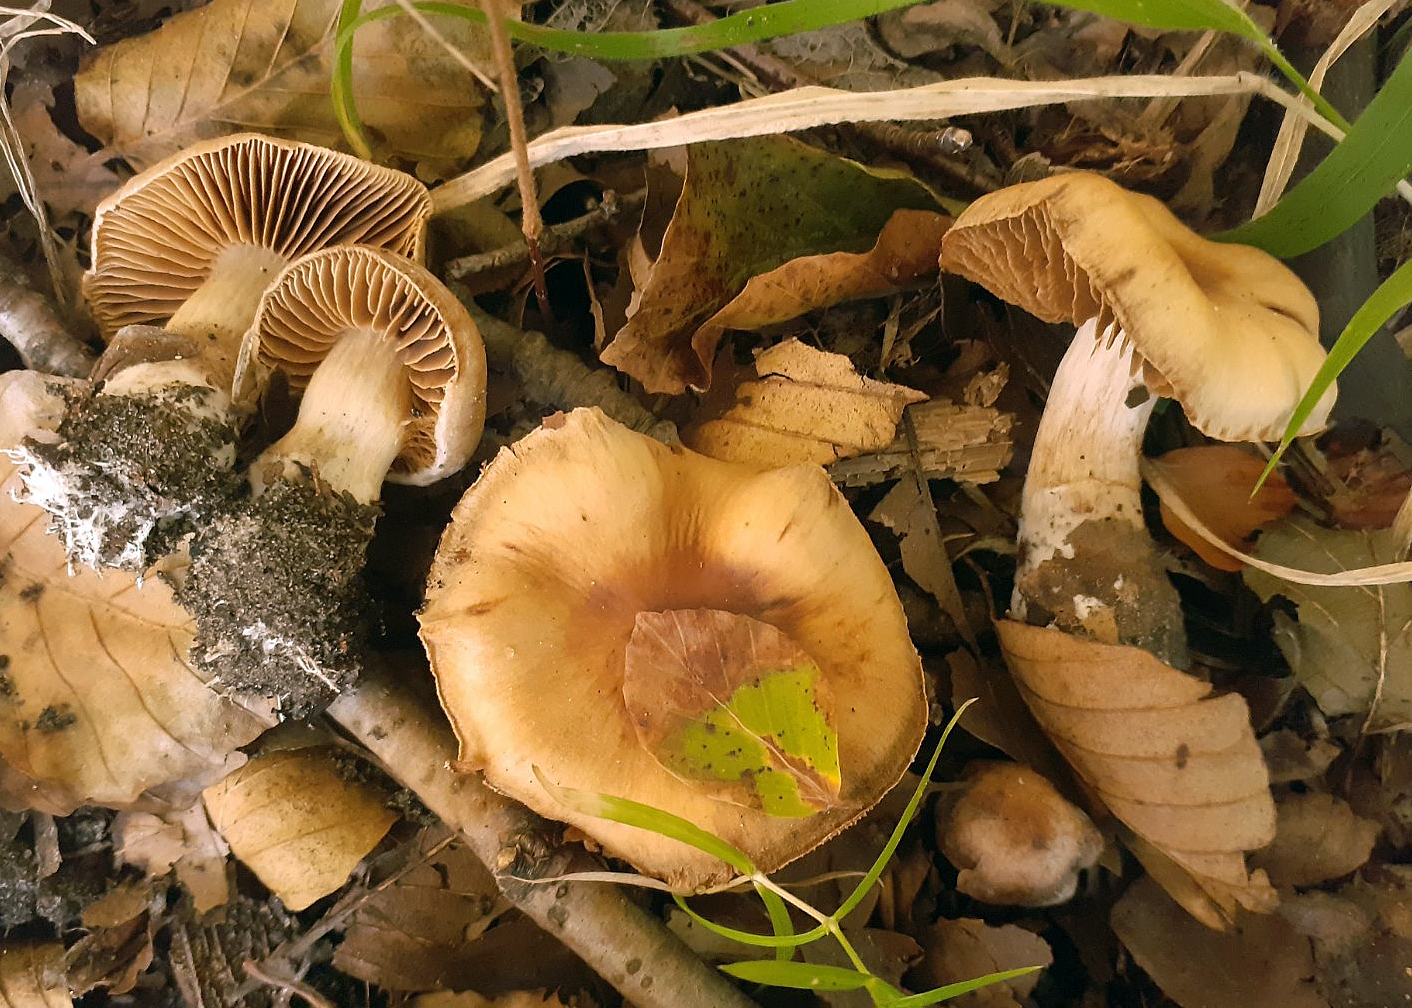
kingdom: Fungi
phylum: Basidiomycota
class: Agaricomycetes
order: Agaricales
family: Cortinariaceae
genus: Cortinarius
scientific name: Cortinarius torvoides
